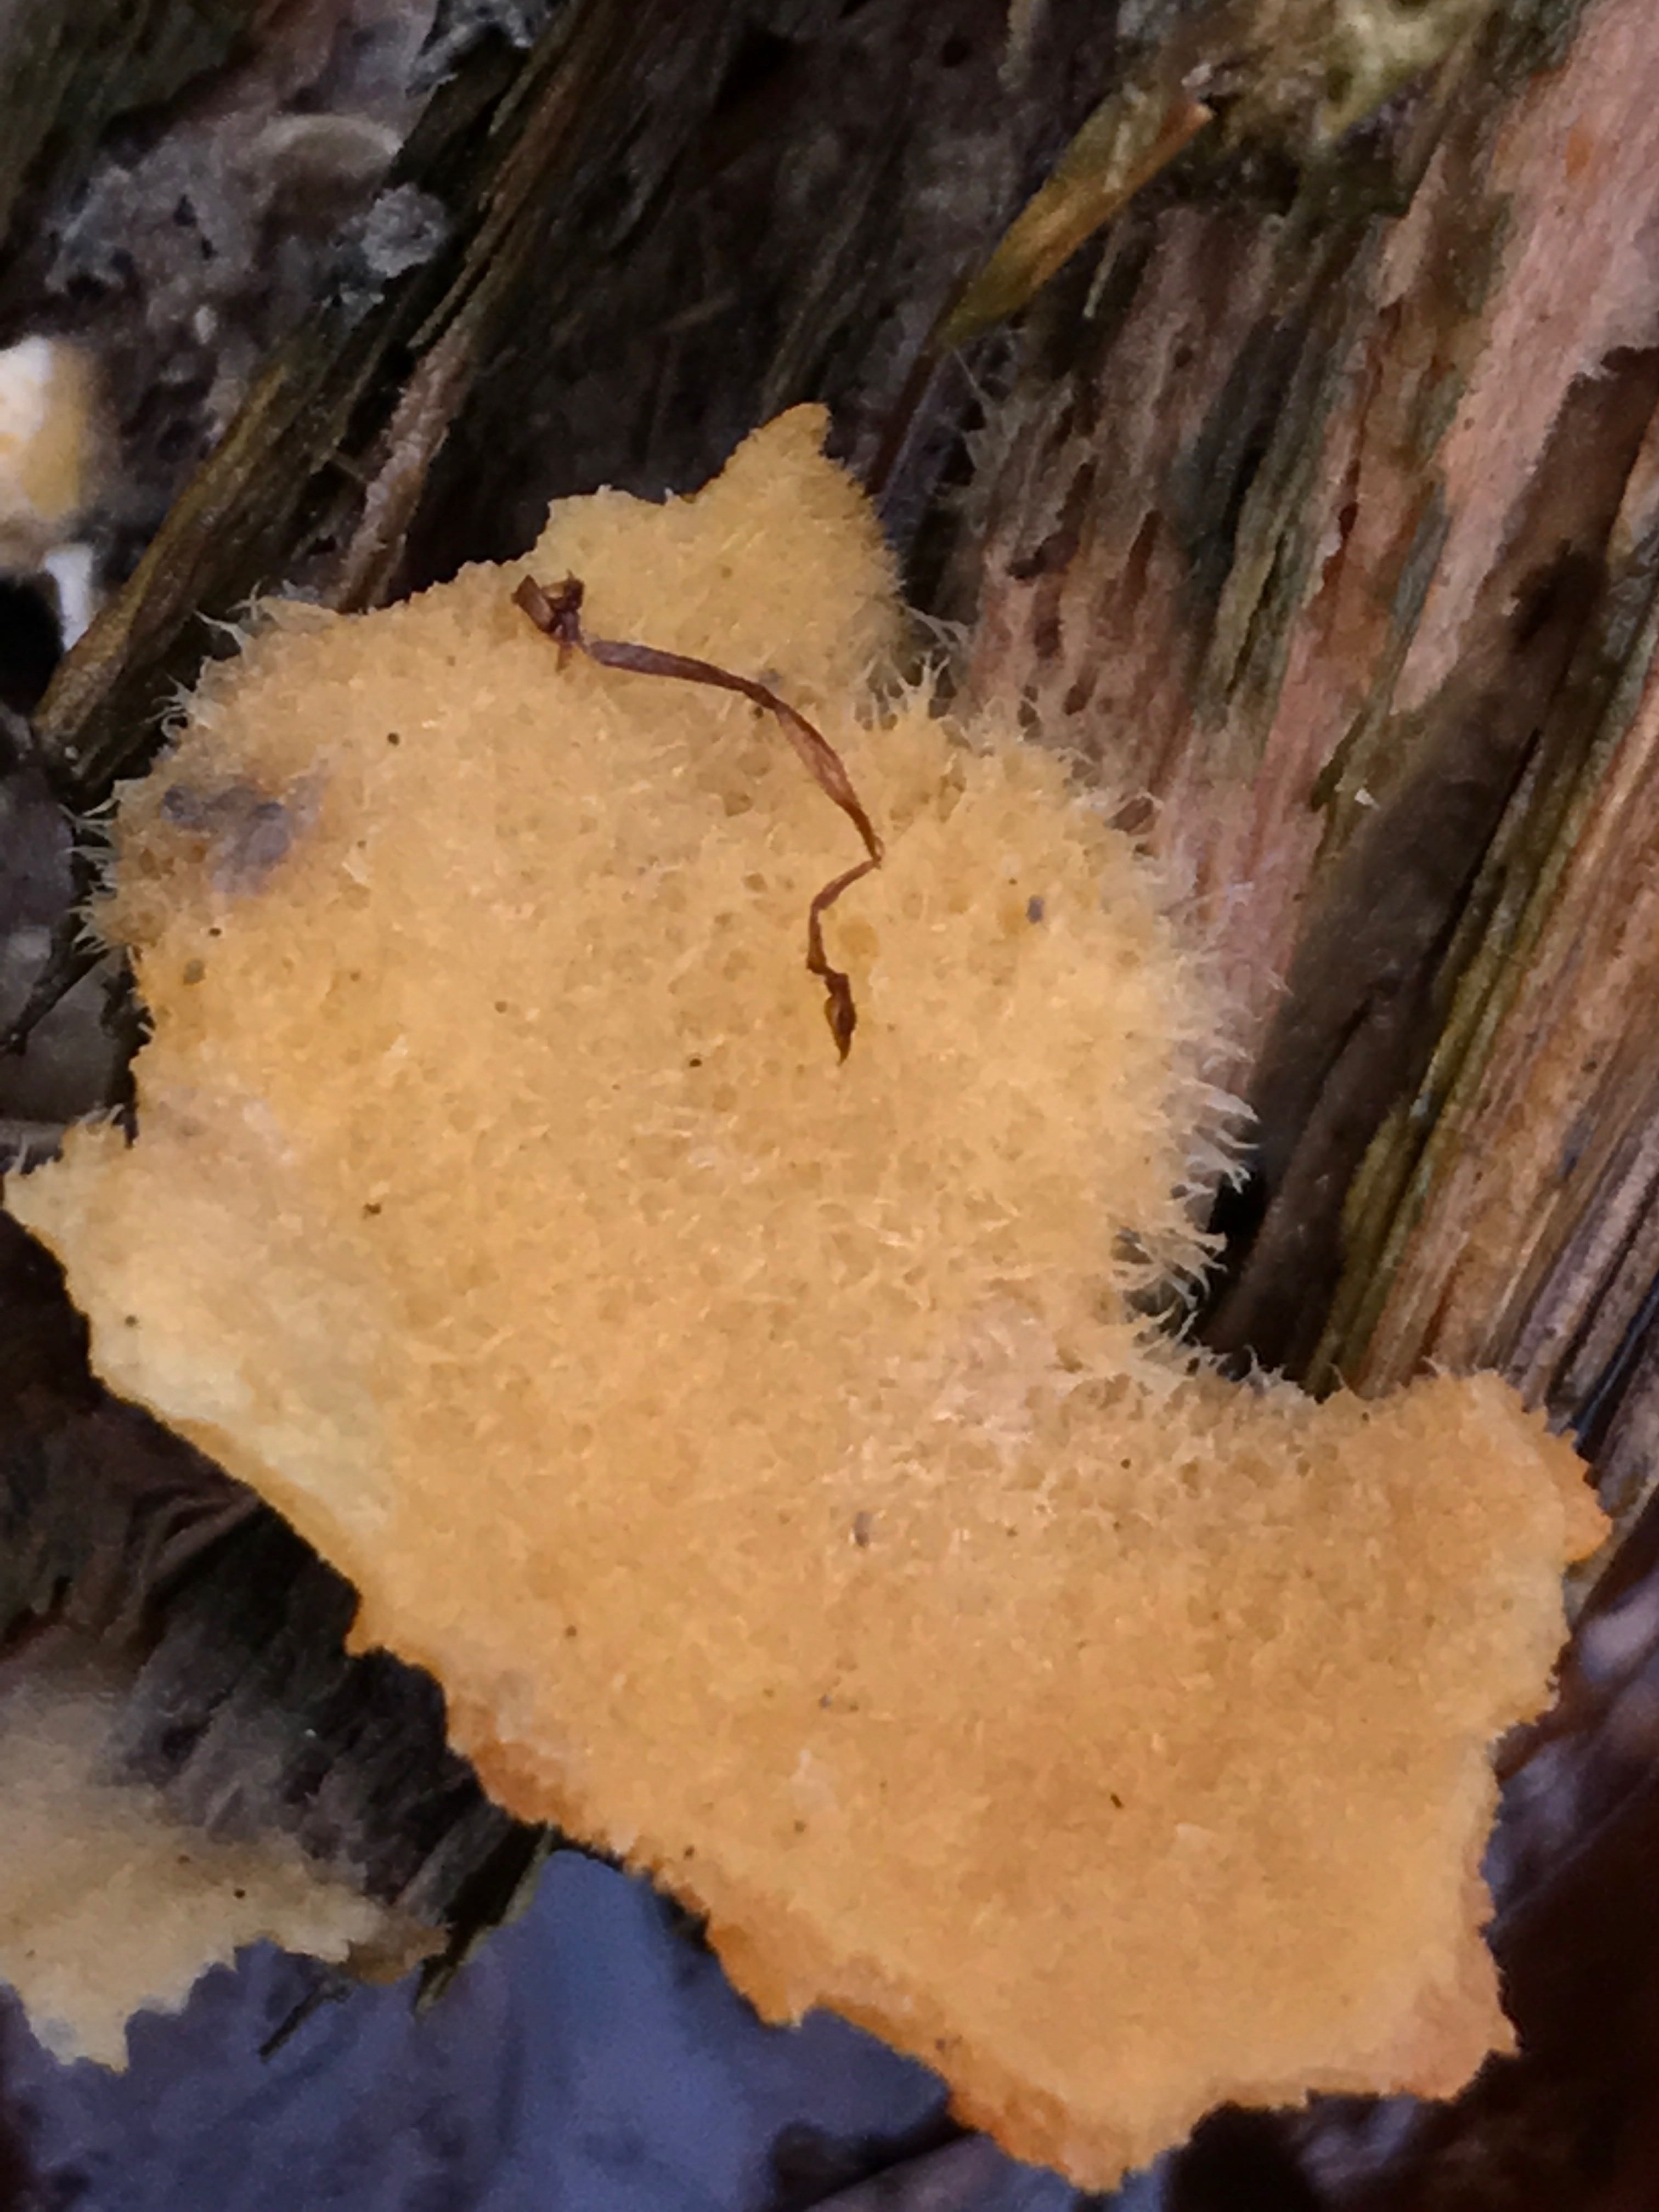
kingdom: Fungi
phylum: Basidiomycota
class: Agaricomycetes
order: Agaricales
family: Phyllotopsidaceae
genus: Phyllotopsis
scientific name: Phyllotopsis nidulans
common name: okkerblad
